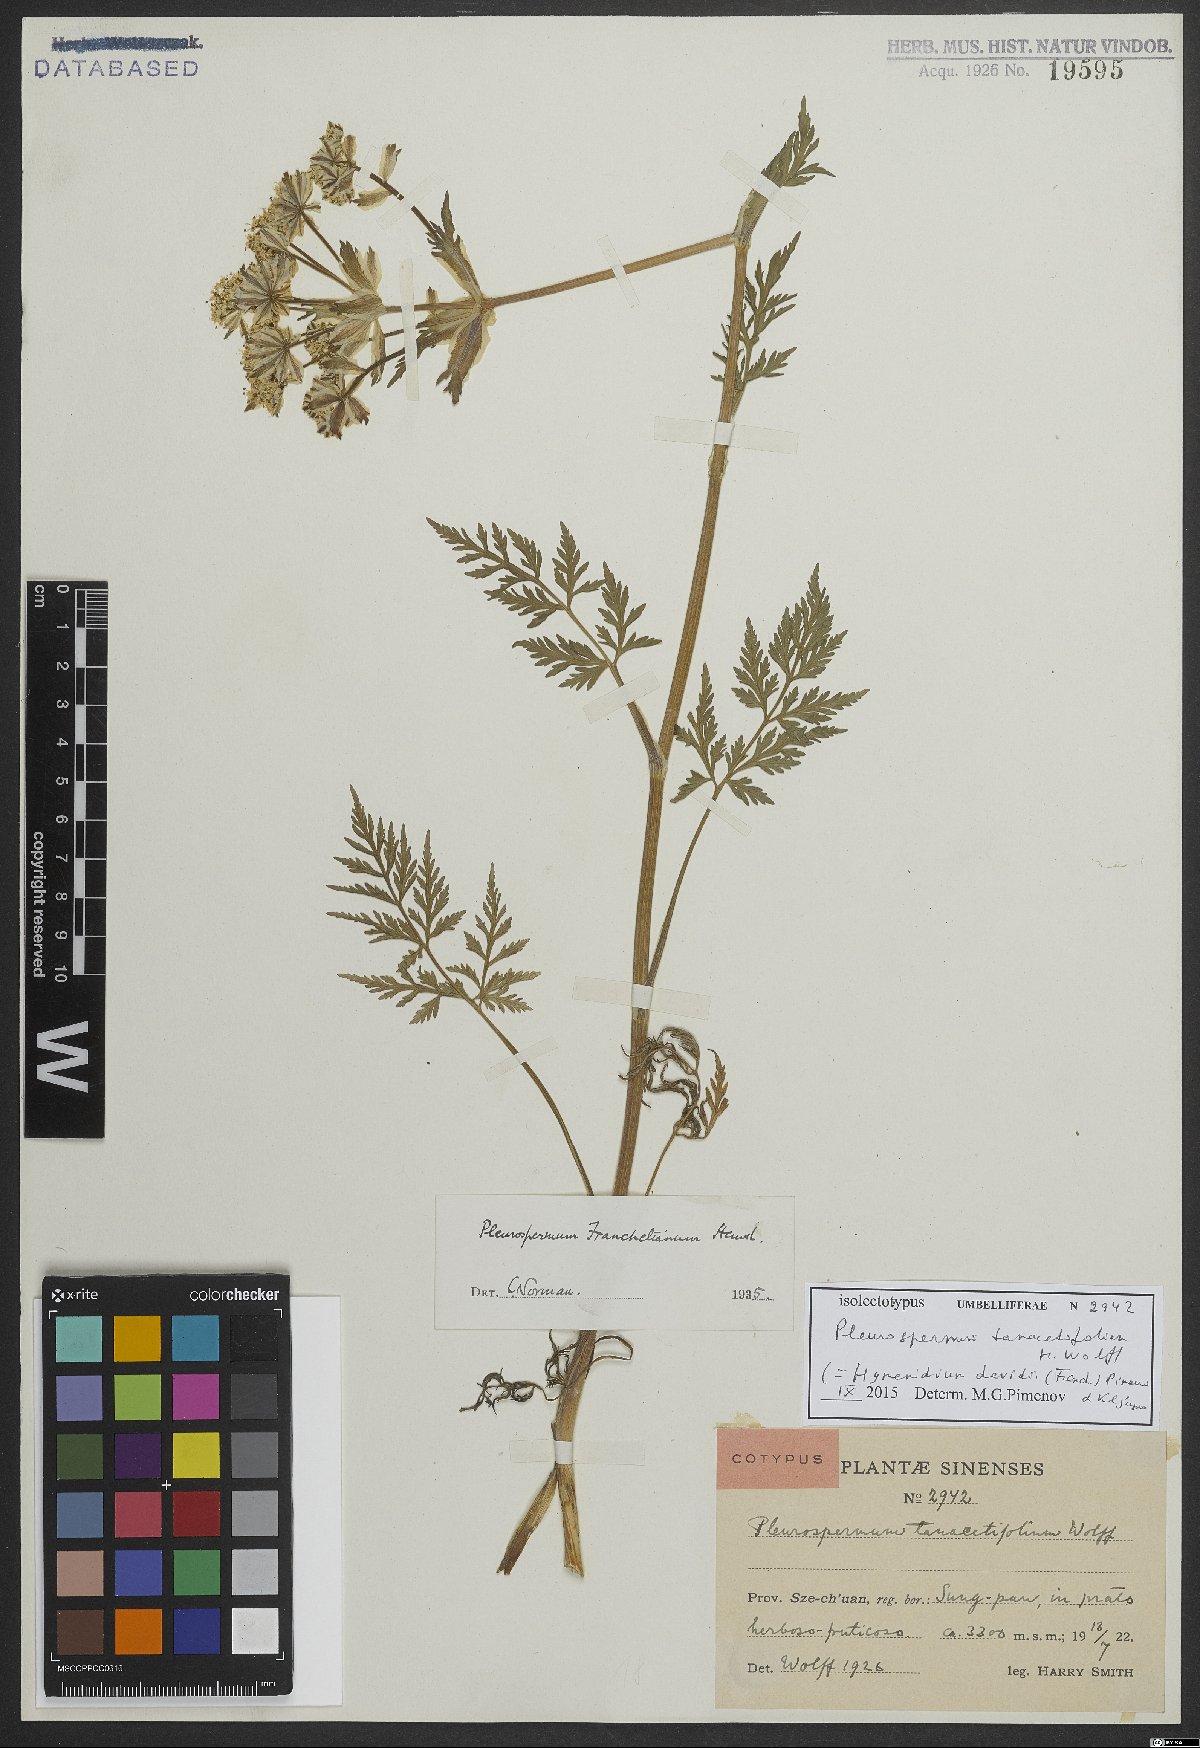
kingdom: Plantae
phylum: Tracheophyta
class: Magnoliopsida
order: Apiales
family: Apiaceae
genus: Hymenidium
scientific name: Hymenidium davidii
